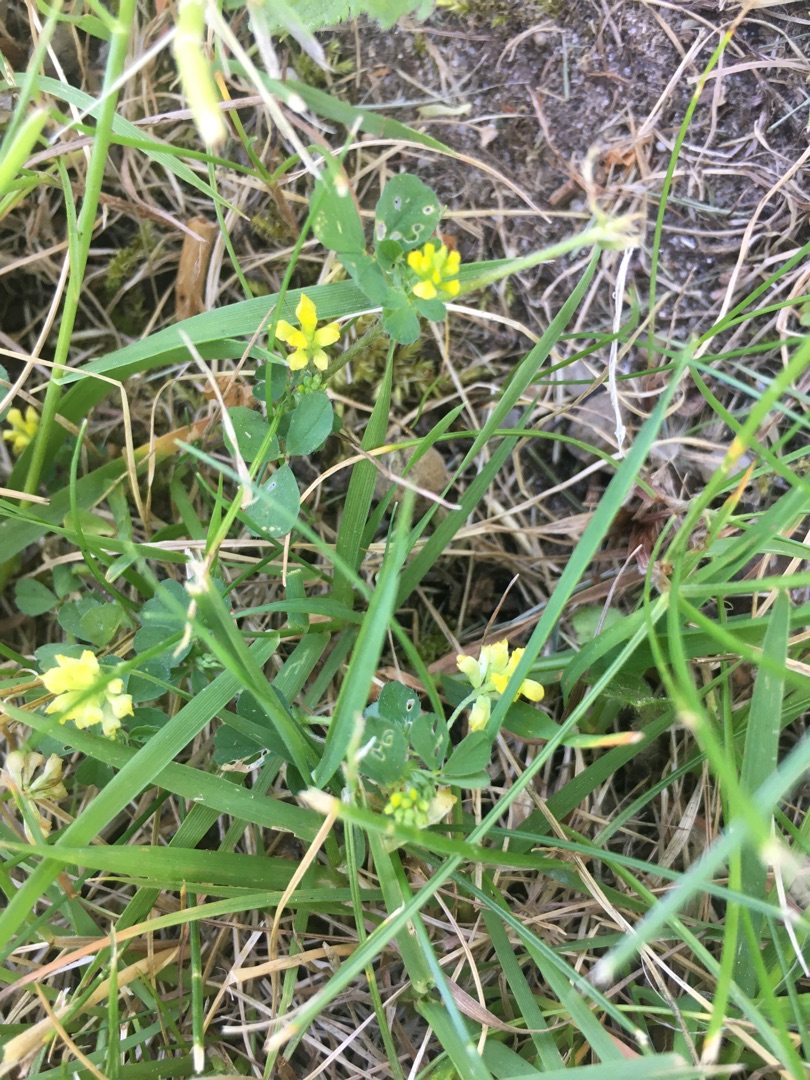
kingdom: Plantae
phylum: Tracheophyta
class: Magnoliopsida
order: Fabales
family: Fabaceae
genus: Trifolium
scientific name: Trifolium dubium
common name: Fin kløver
